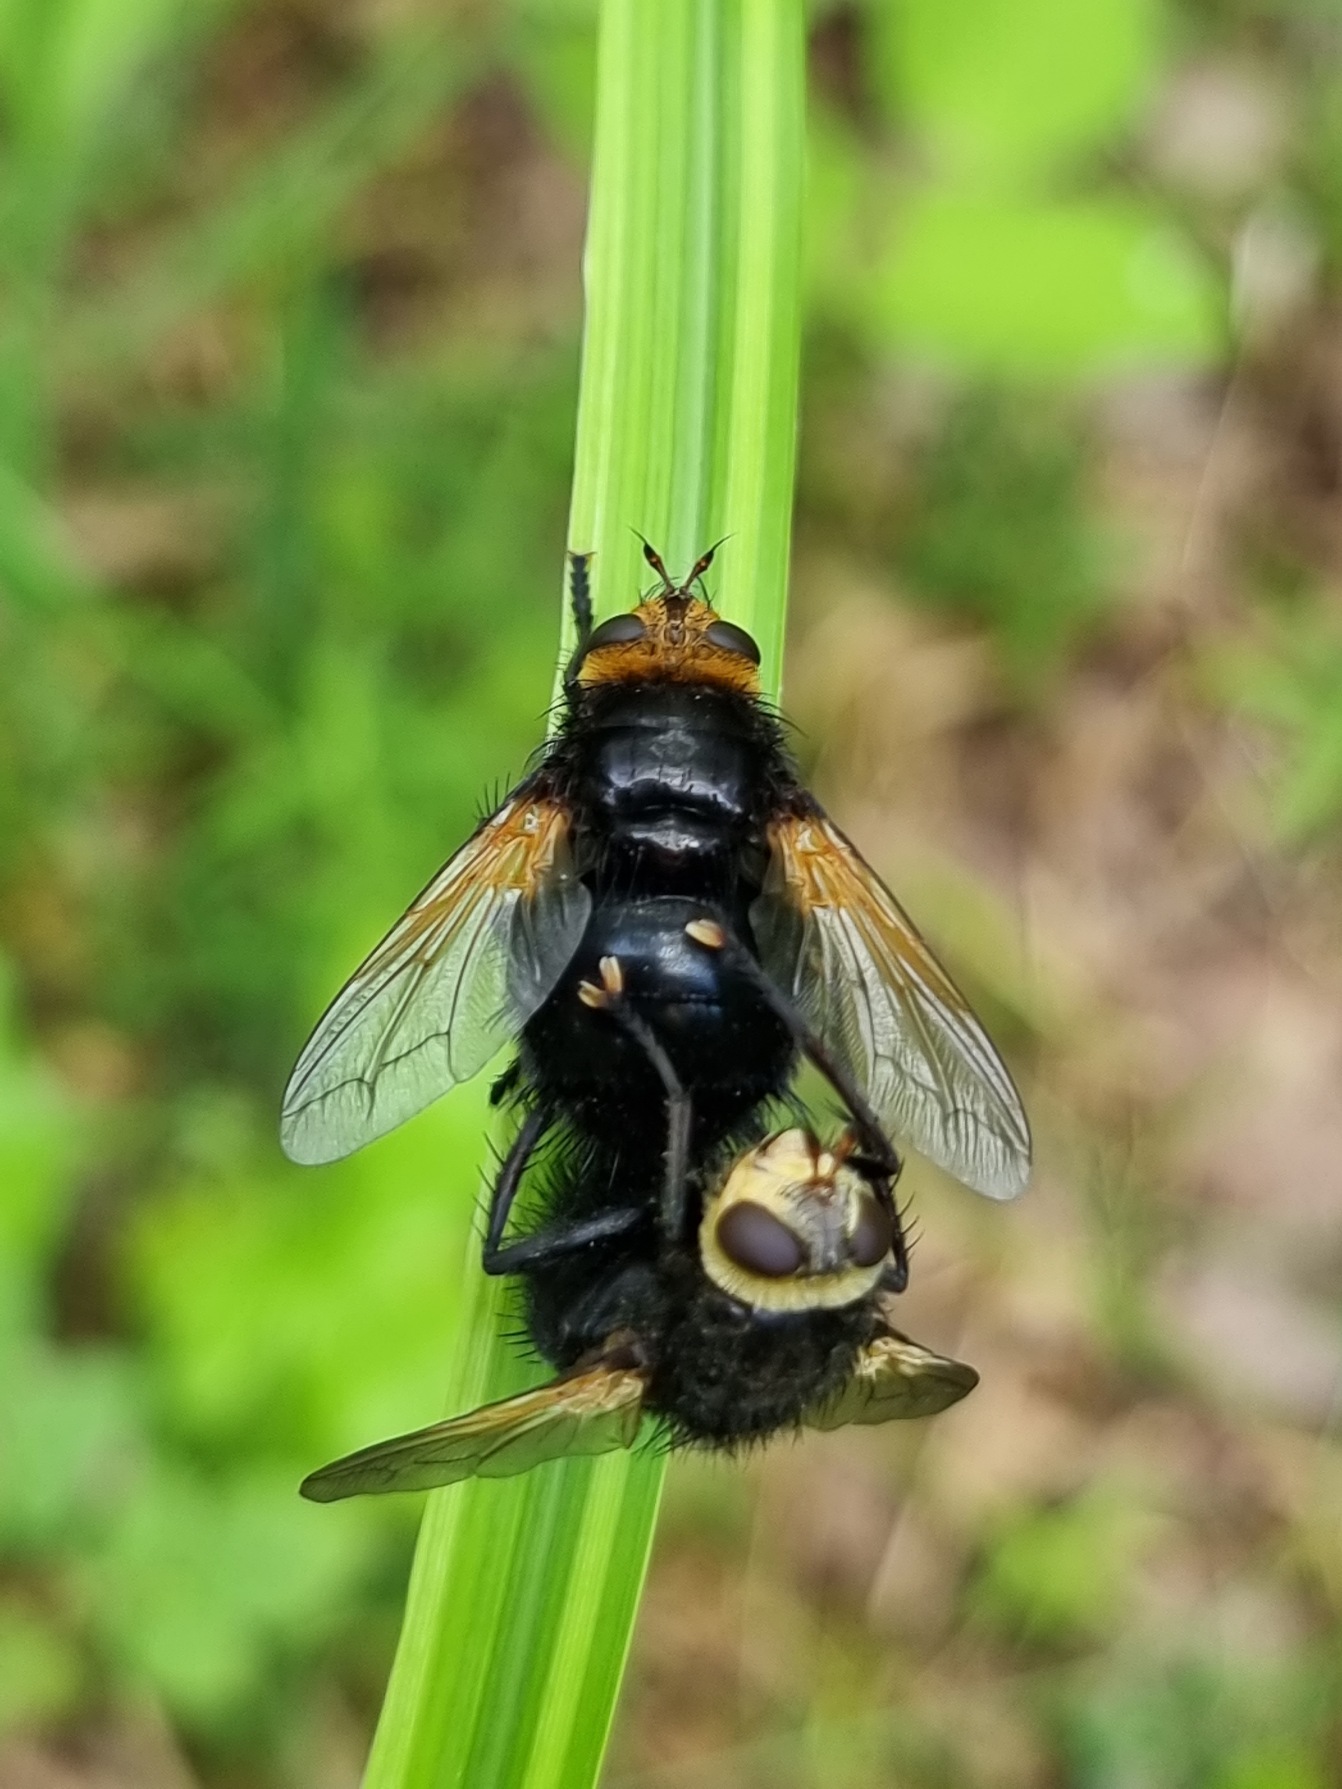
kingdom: Animalia
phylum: Arthropoda
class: Insecta
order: Diptera
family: Tachinidae
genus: Tachina
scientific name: Tachina grossa
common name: Kæmpefluen Harald
